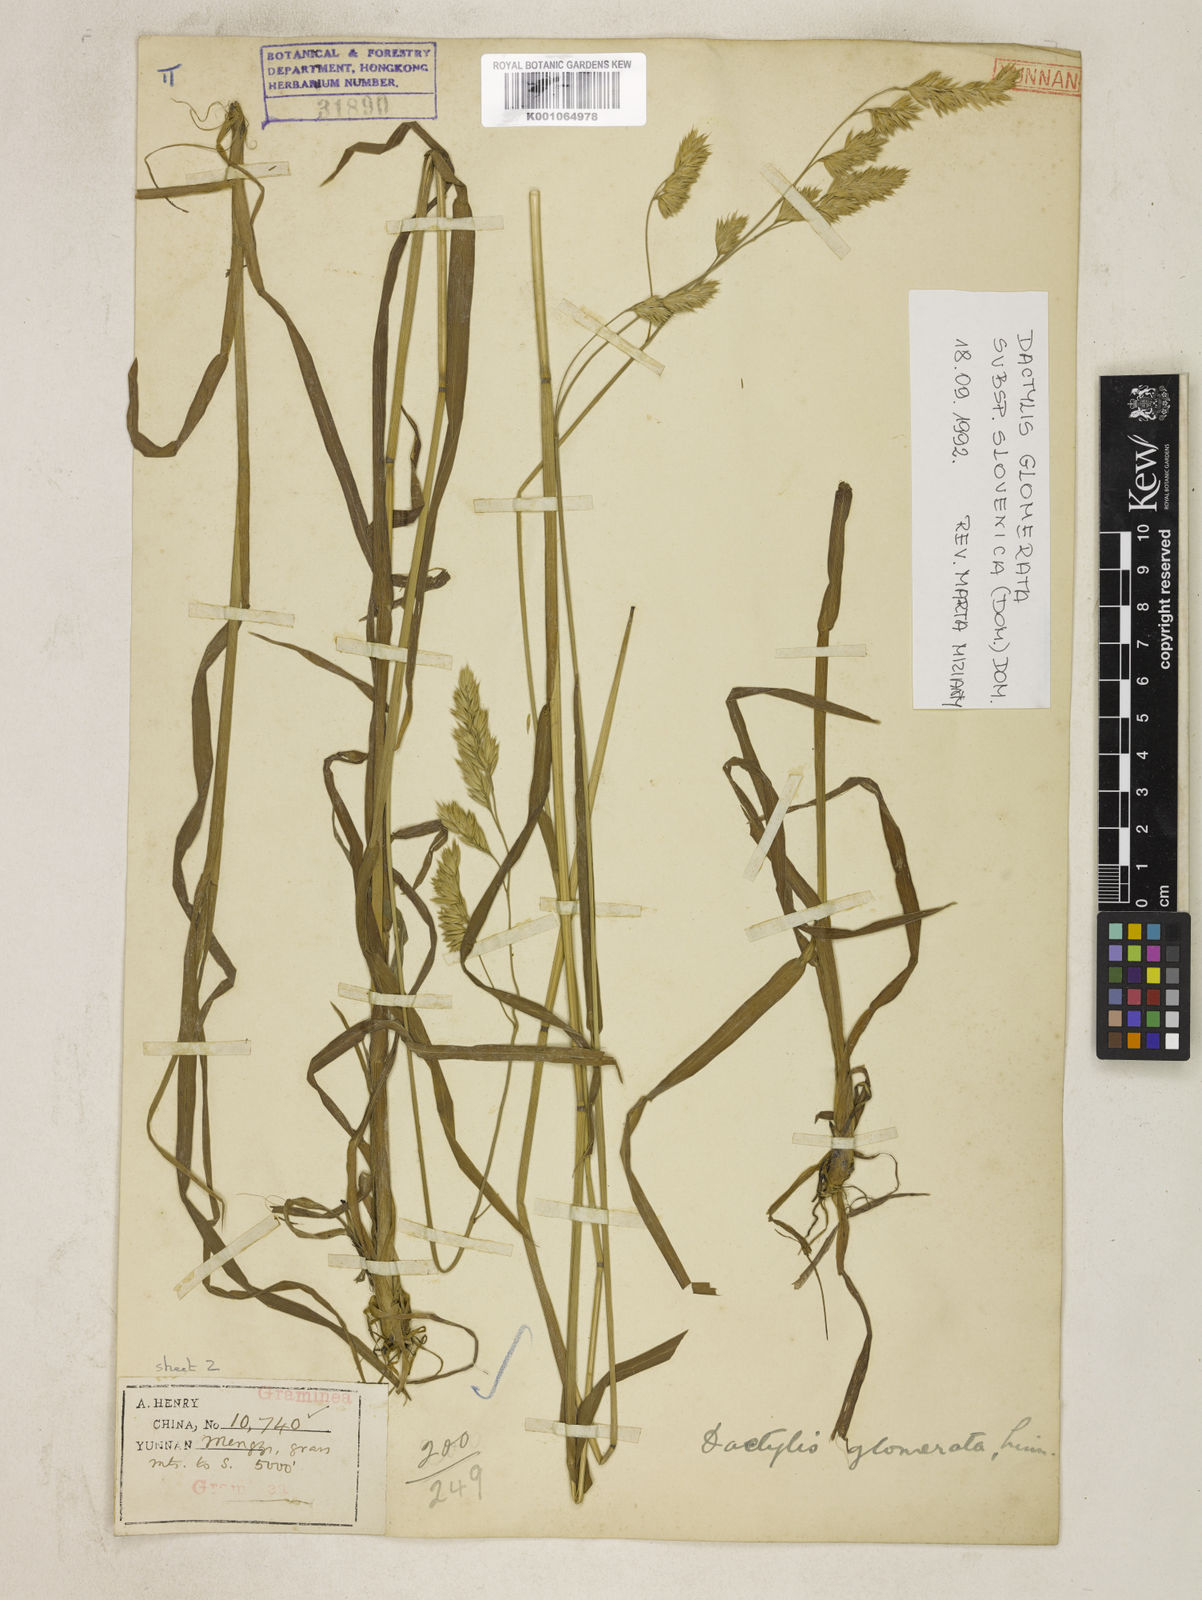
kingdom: Plantae
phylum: Tracheophyta
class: Liliopsida
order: Poales
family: Poaceae
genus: Dactylis
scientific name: Dactylis glomerata
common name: Orchardgrass
